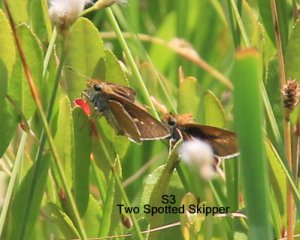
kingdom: Animalia
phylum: Arthropoda
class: Insecta
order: Lepidoptera
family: Hesperiidae
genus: Euphyes
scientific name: Euphyes bimacula
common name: Two-spotted Skipper
